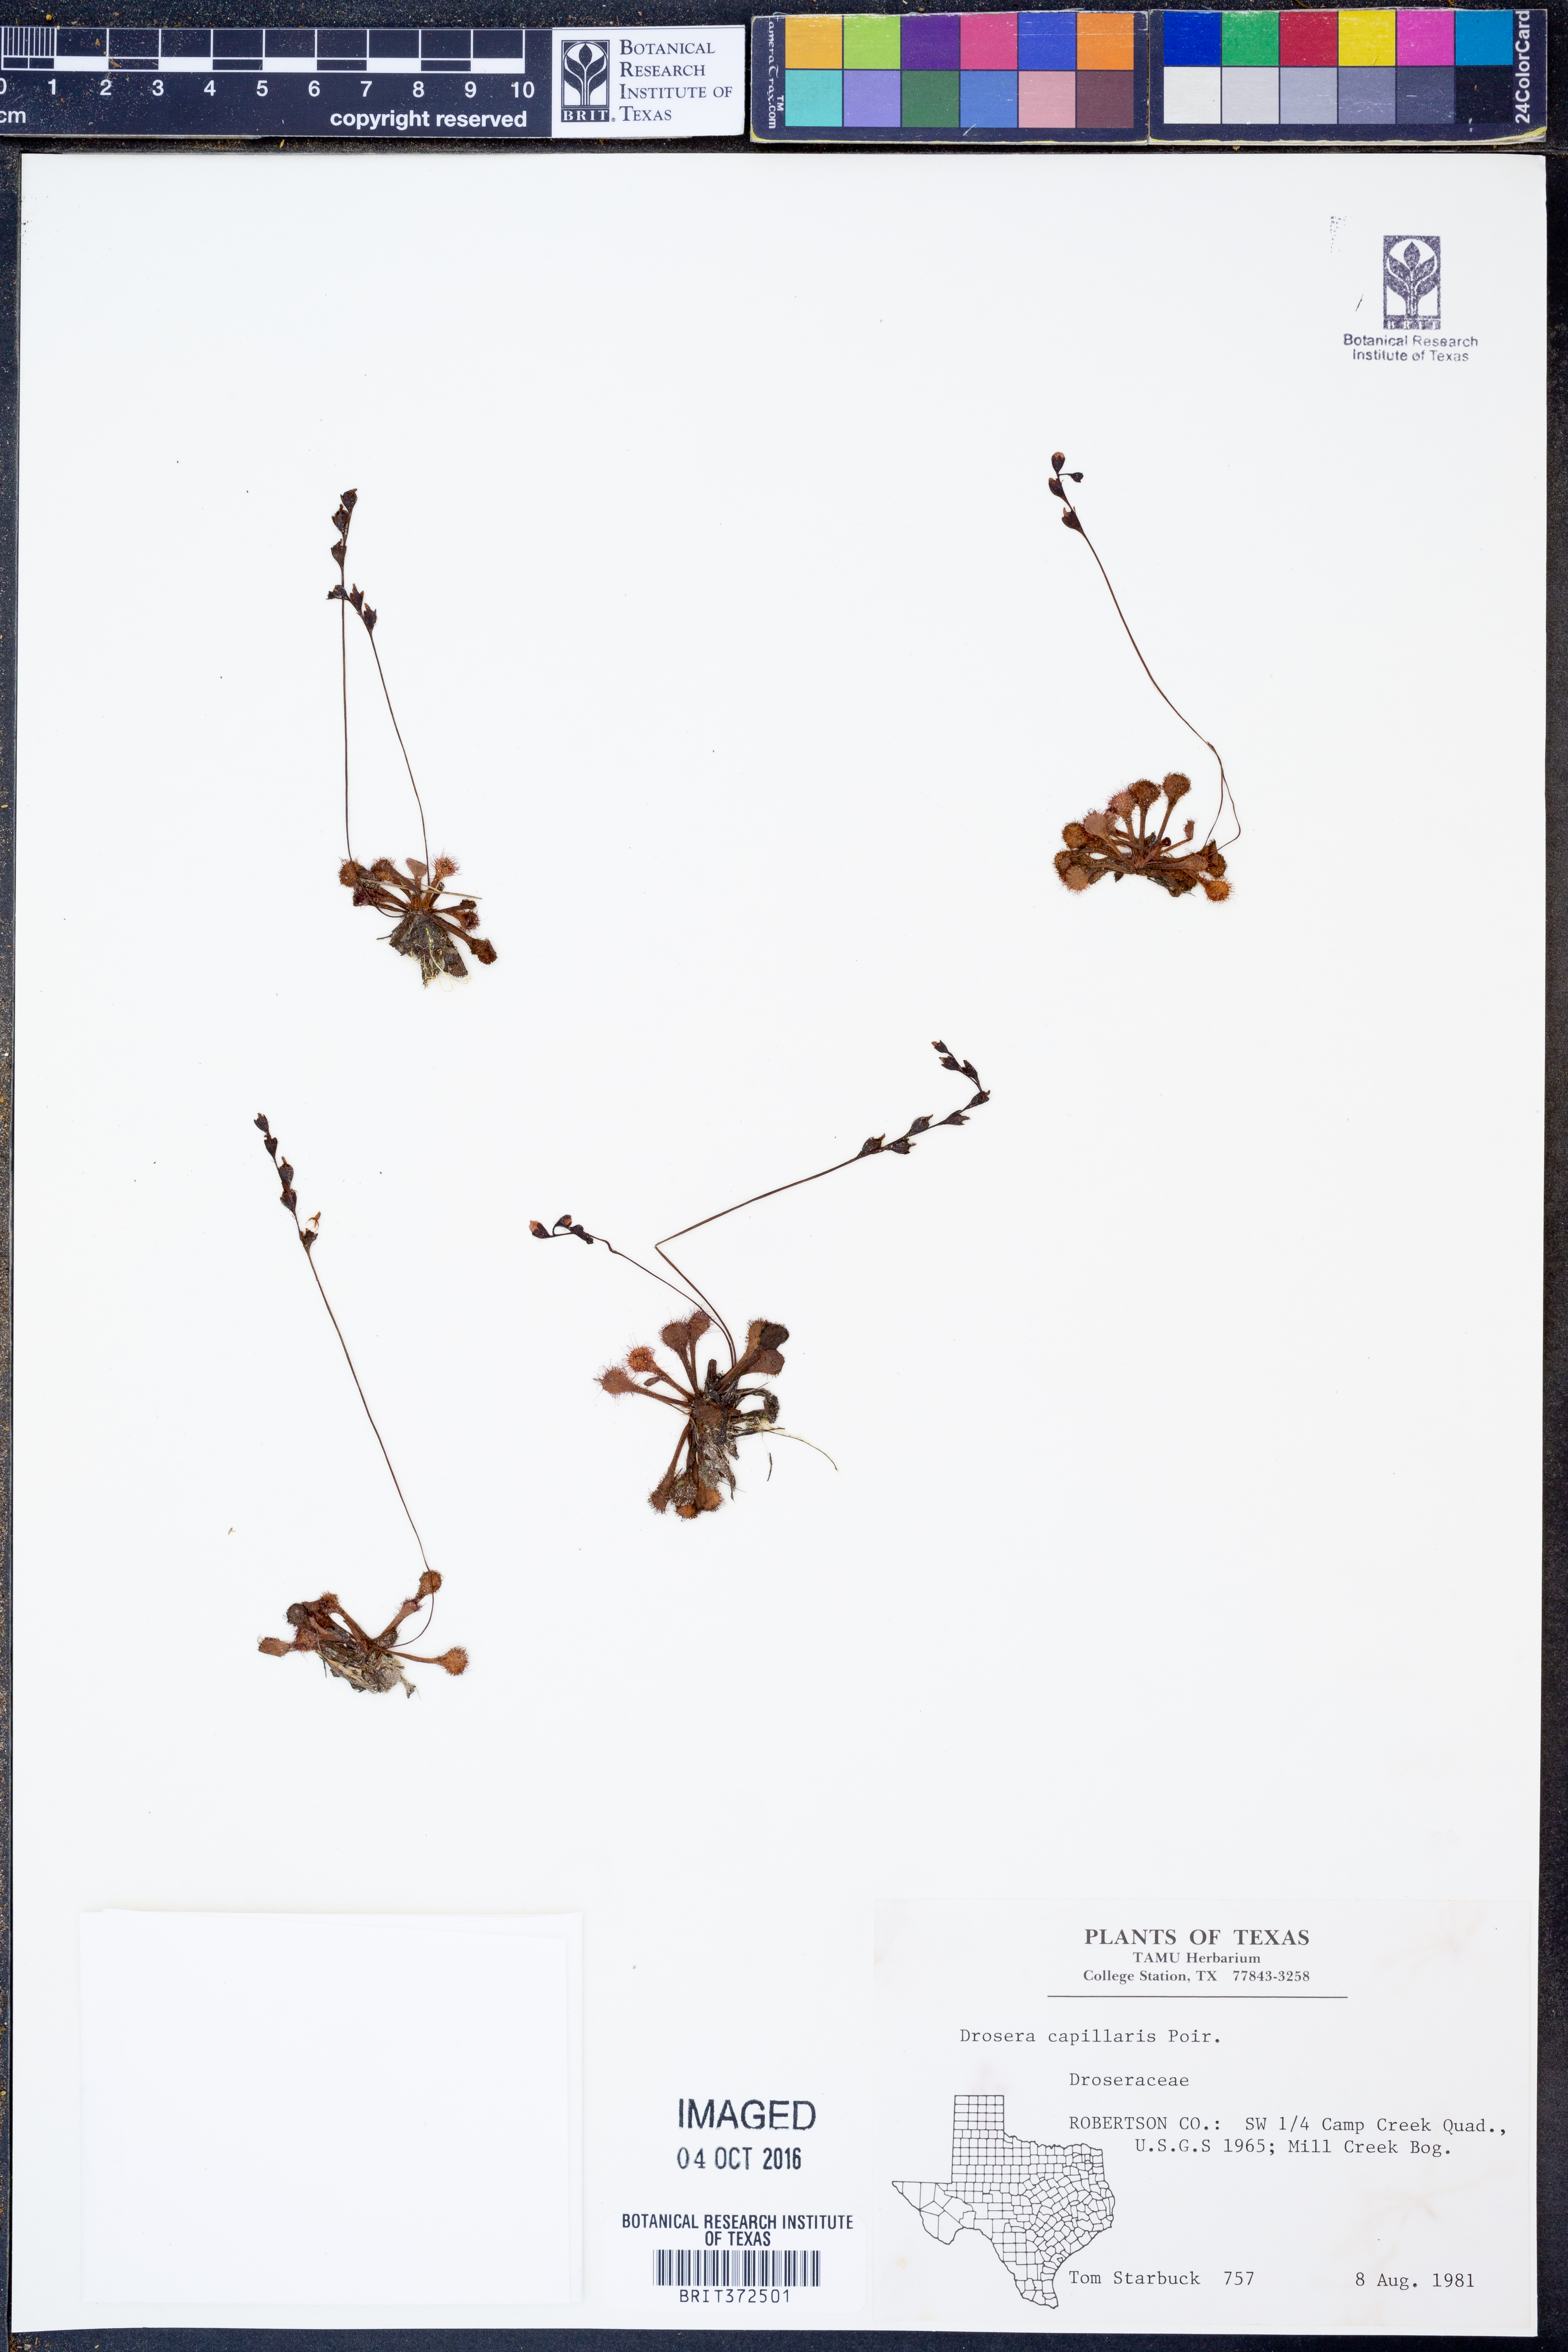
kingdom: Plantae
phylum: Tracheophyta
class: Magnoliopsida
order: Caryophyllales
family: Droseraceae
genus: Drosera
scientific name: Drosera capillaris
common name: Pink sundew
